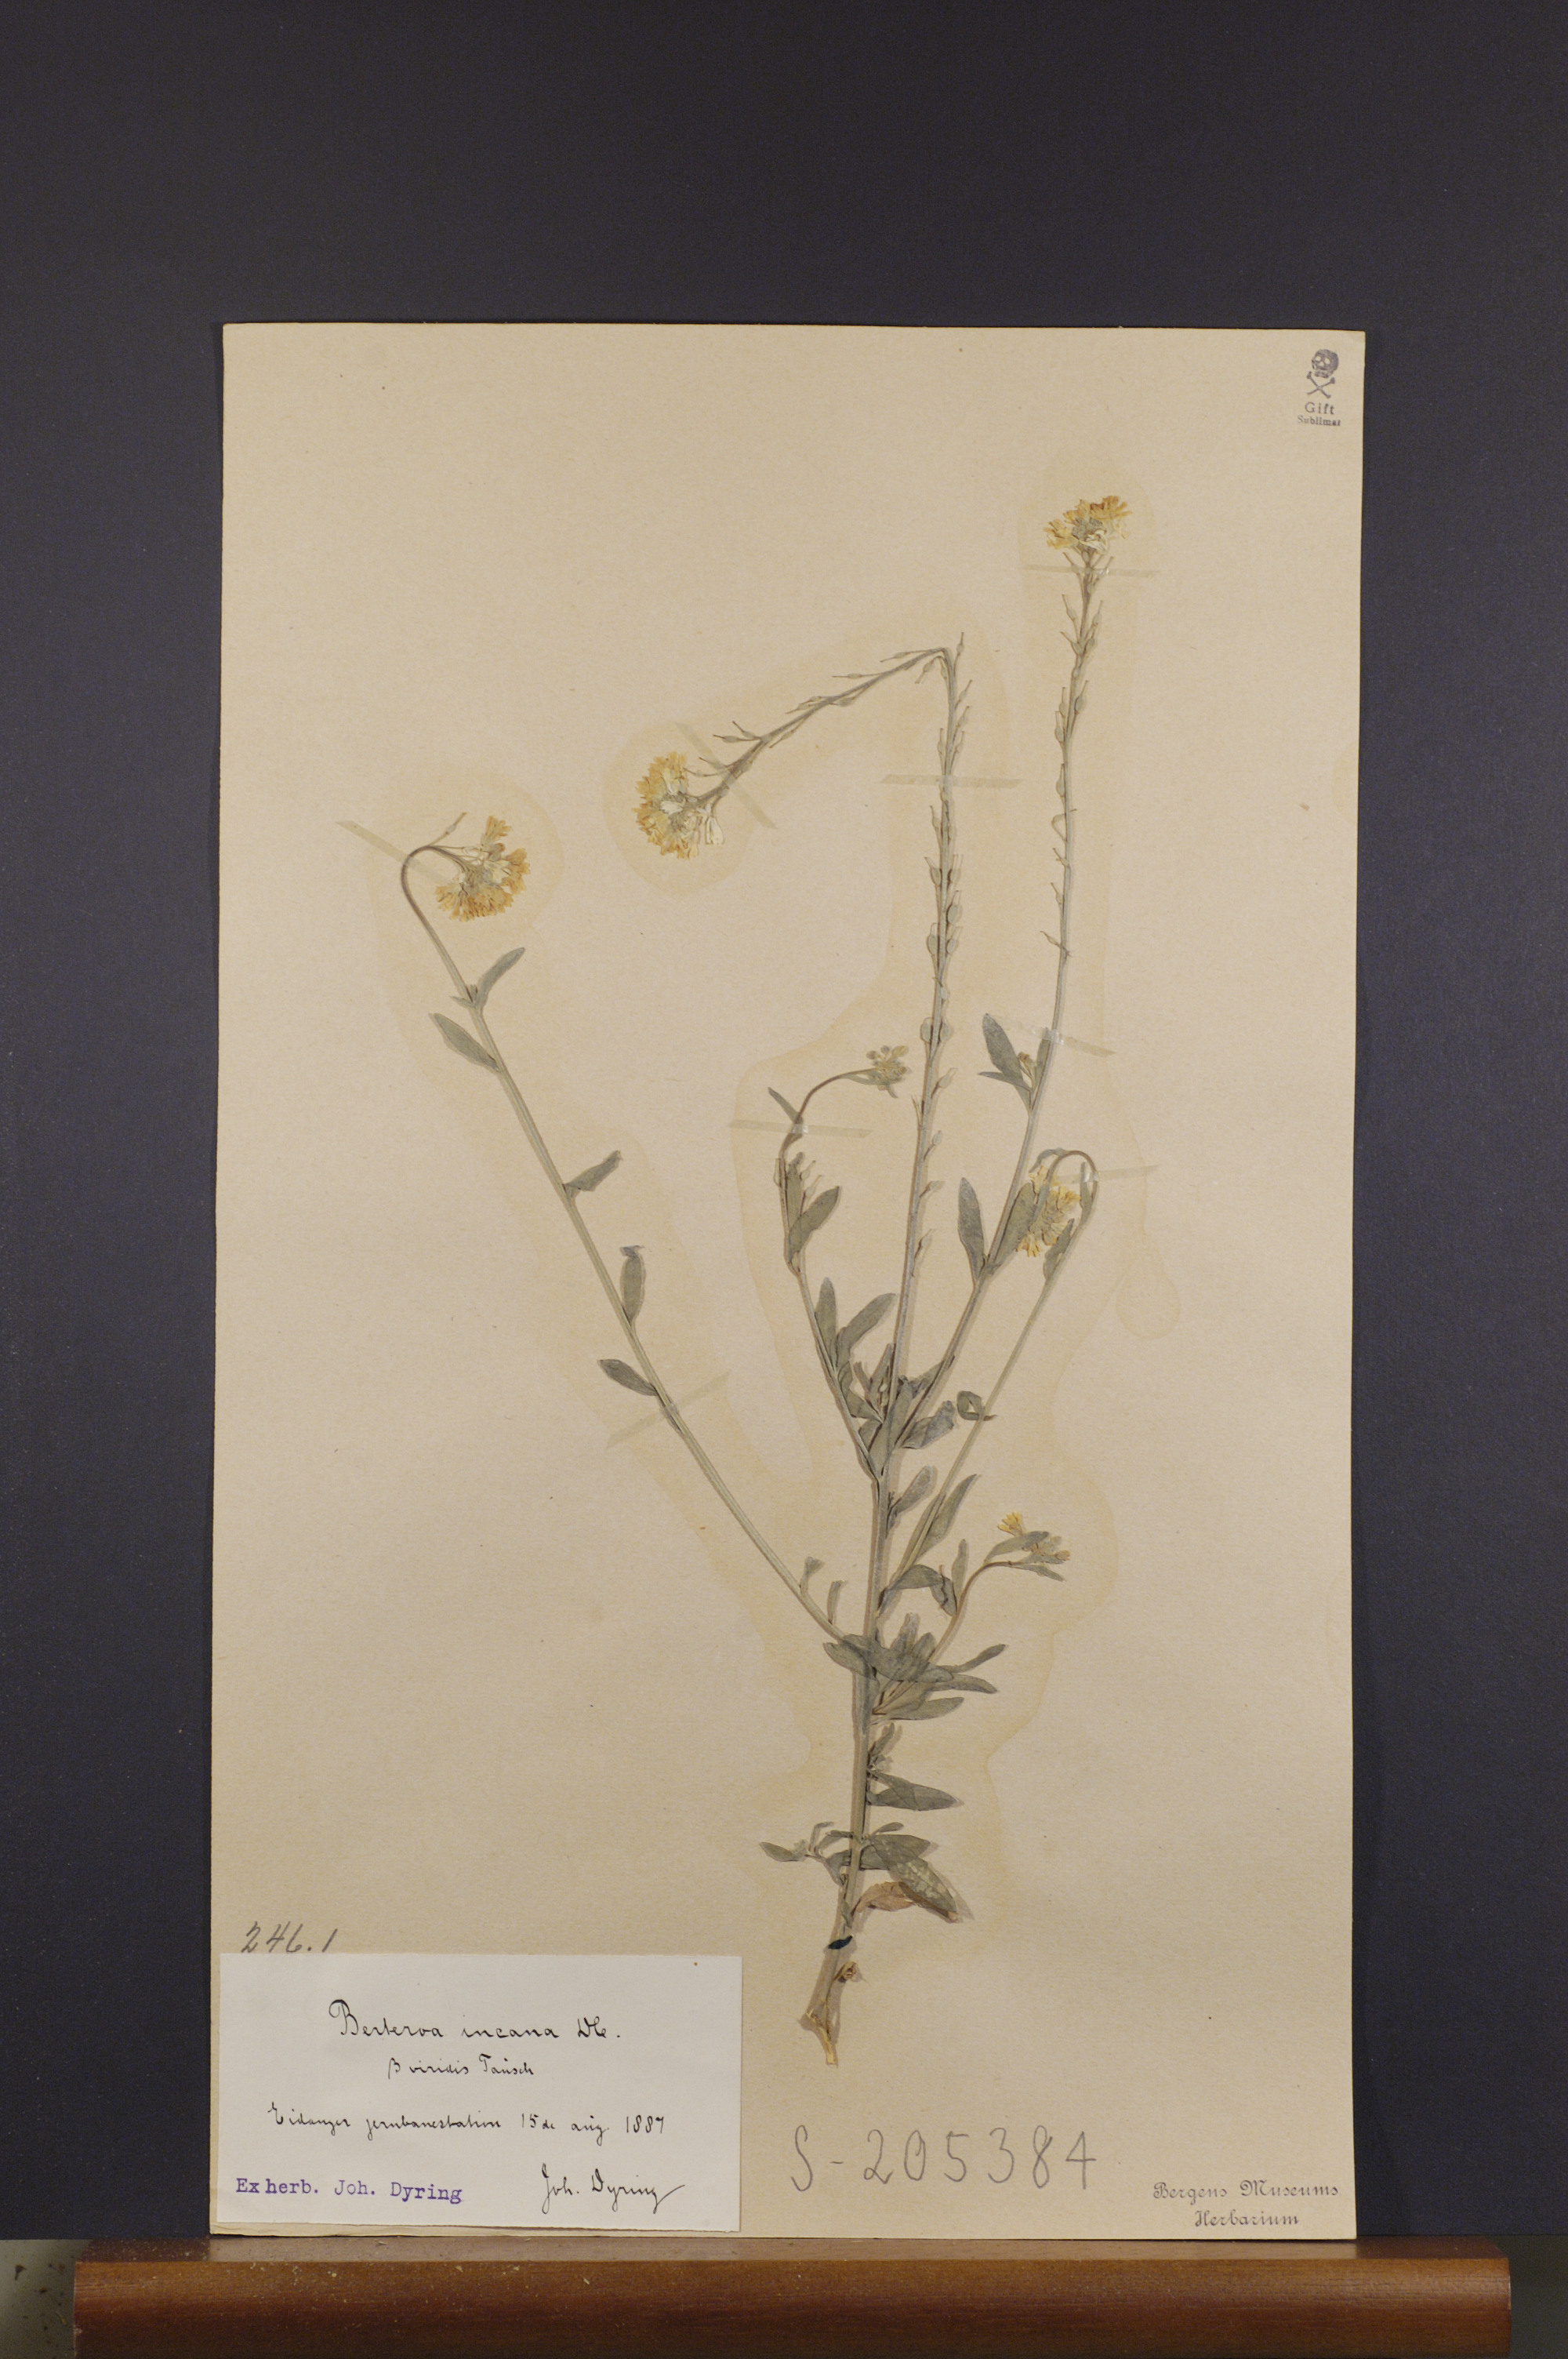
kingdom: Plantae
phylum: Tracheophyta
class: Magnoliopsida
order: Brassicales
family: Brassicaceae
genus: Berteroa
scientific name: Berteroa incana
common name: Hoary alison
